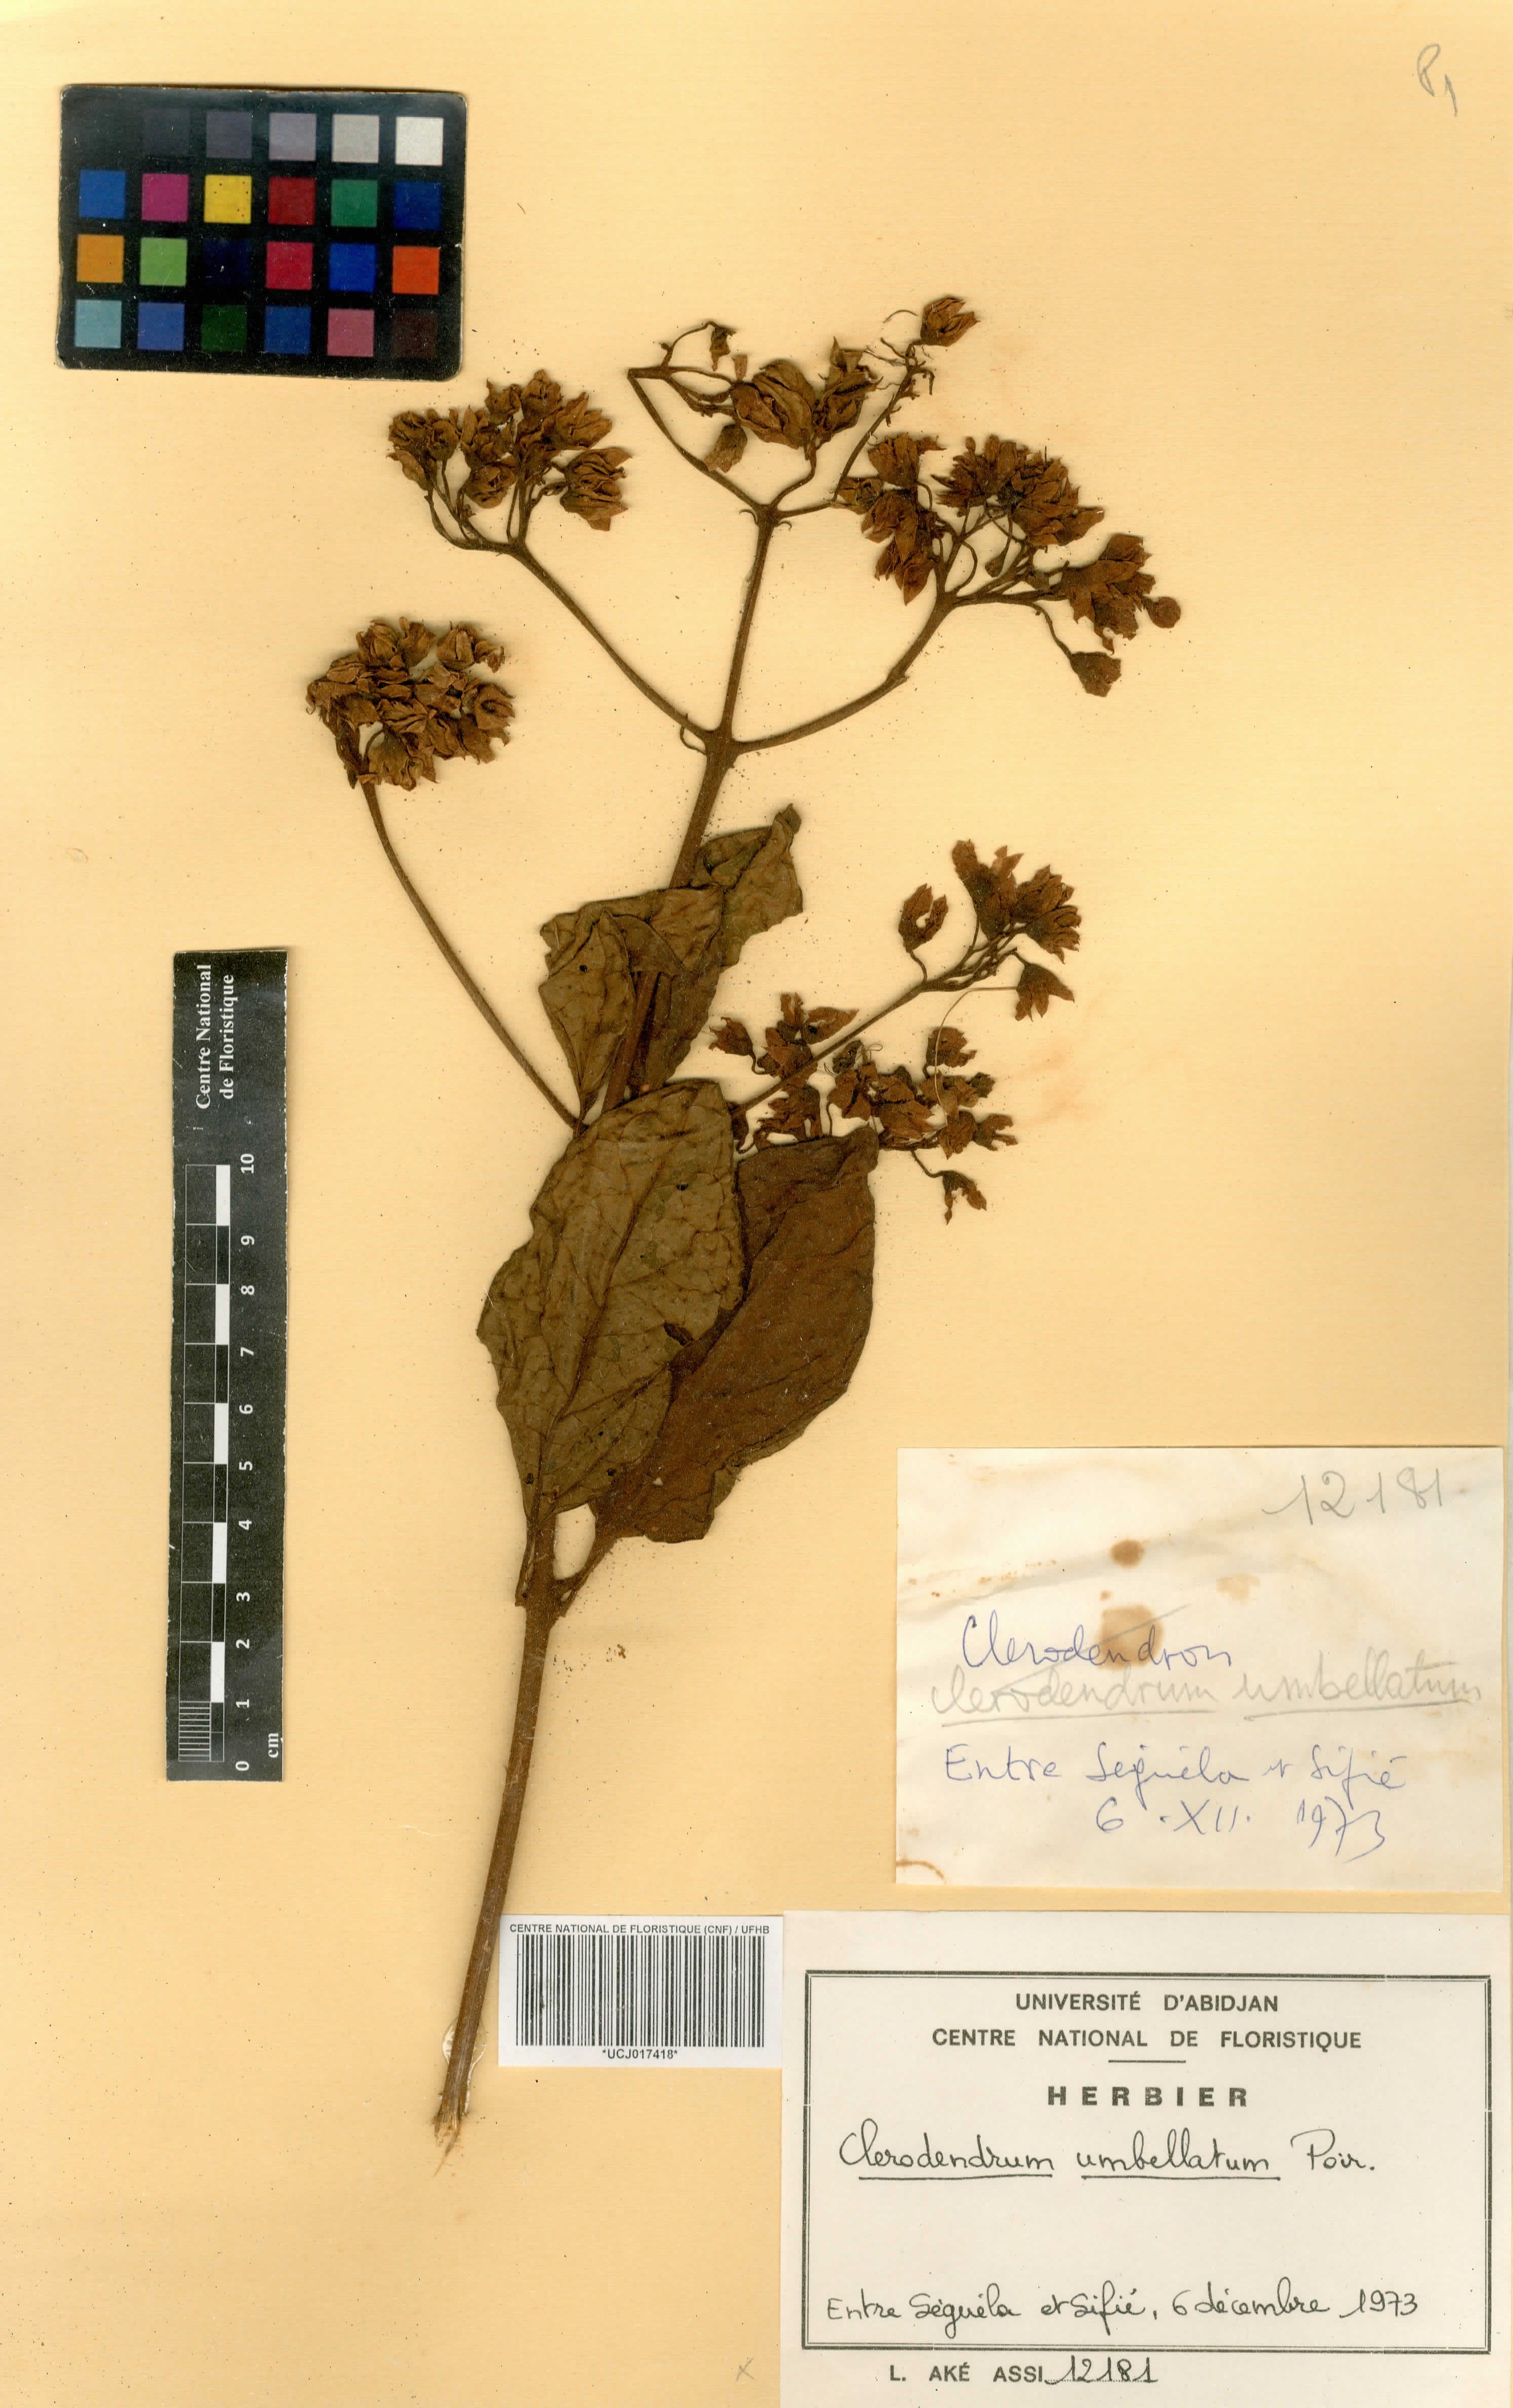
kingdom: Plantae
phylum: Tracheophyta
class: Magnoliopsida
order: Lamiales
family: Lamiaceae
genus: Clerodendrum
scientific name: Clerodendrum umbellatum
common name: Umbel clerodendrum
